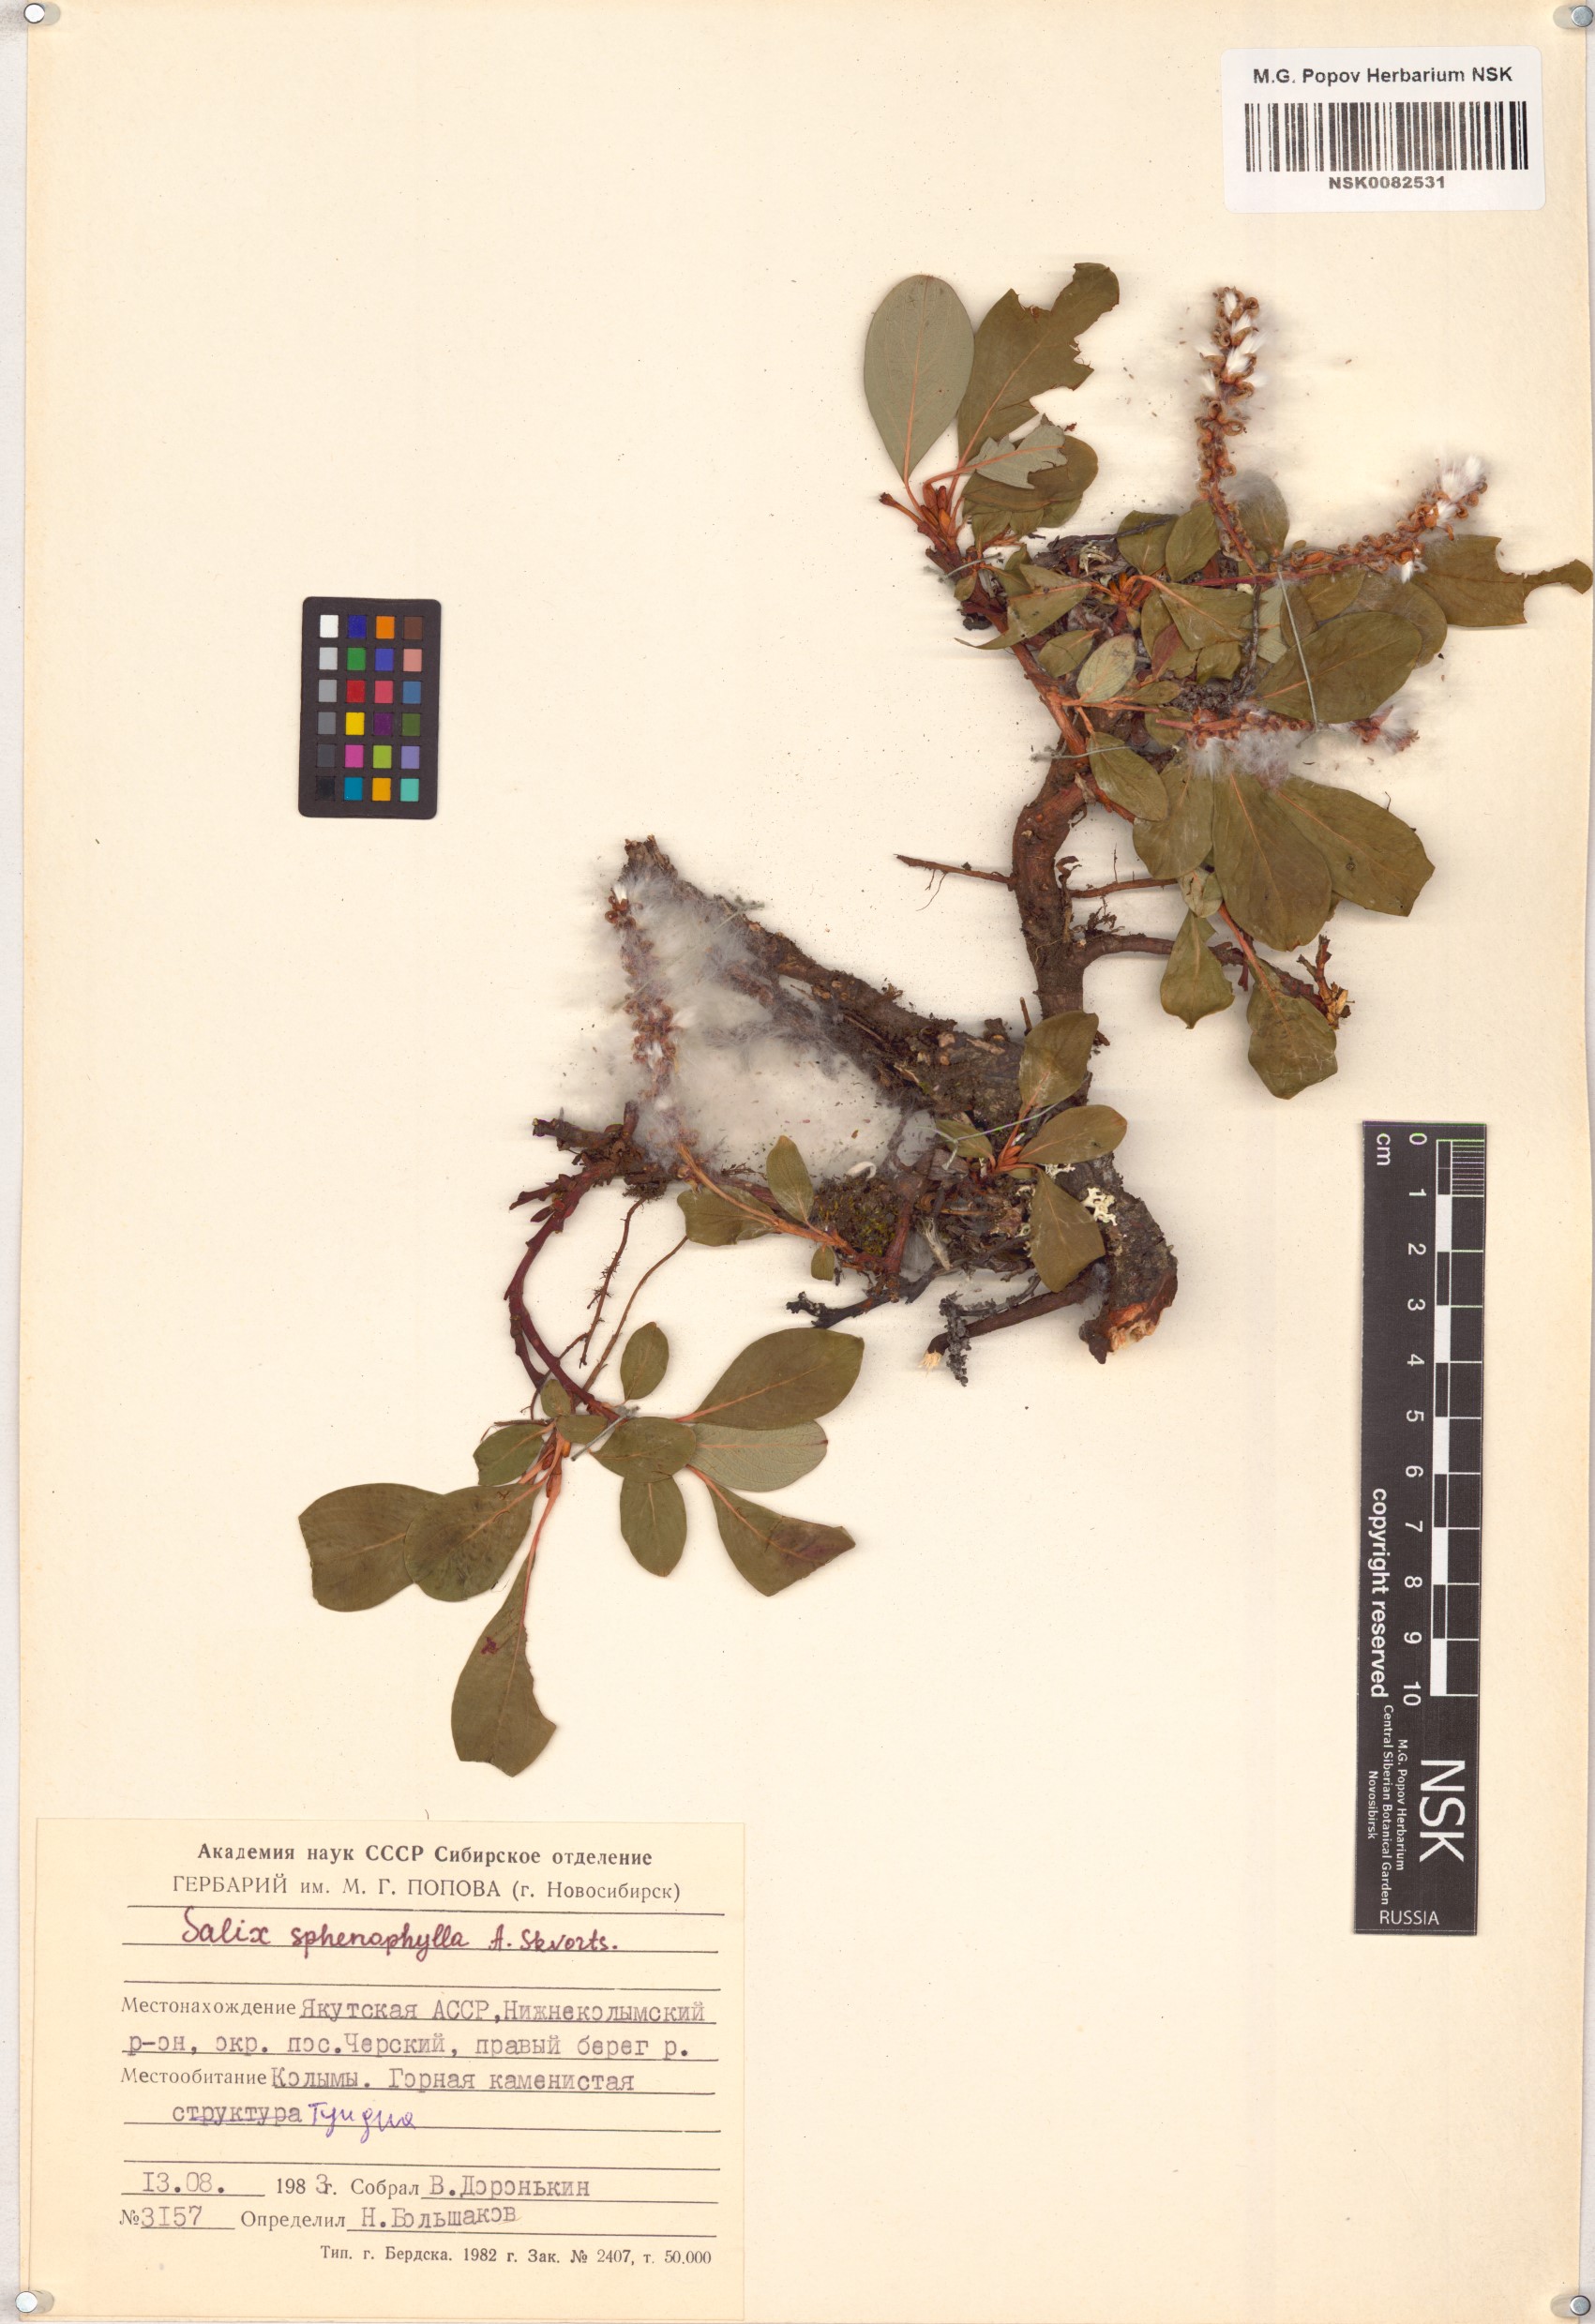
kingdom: Plantae
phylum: Tracheophyta
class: Magnoliopsida
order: Malpighiales
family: Salicaceae
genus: Salix
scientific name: Salix sphenophylla
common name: Wedge-leaved willow
